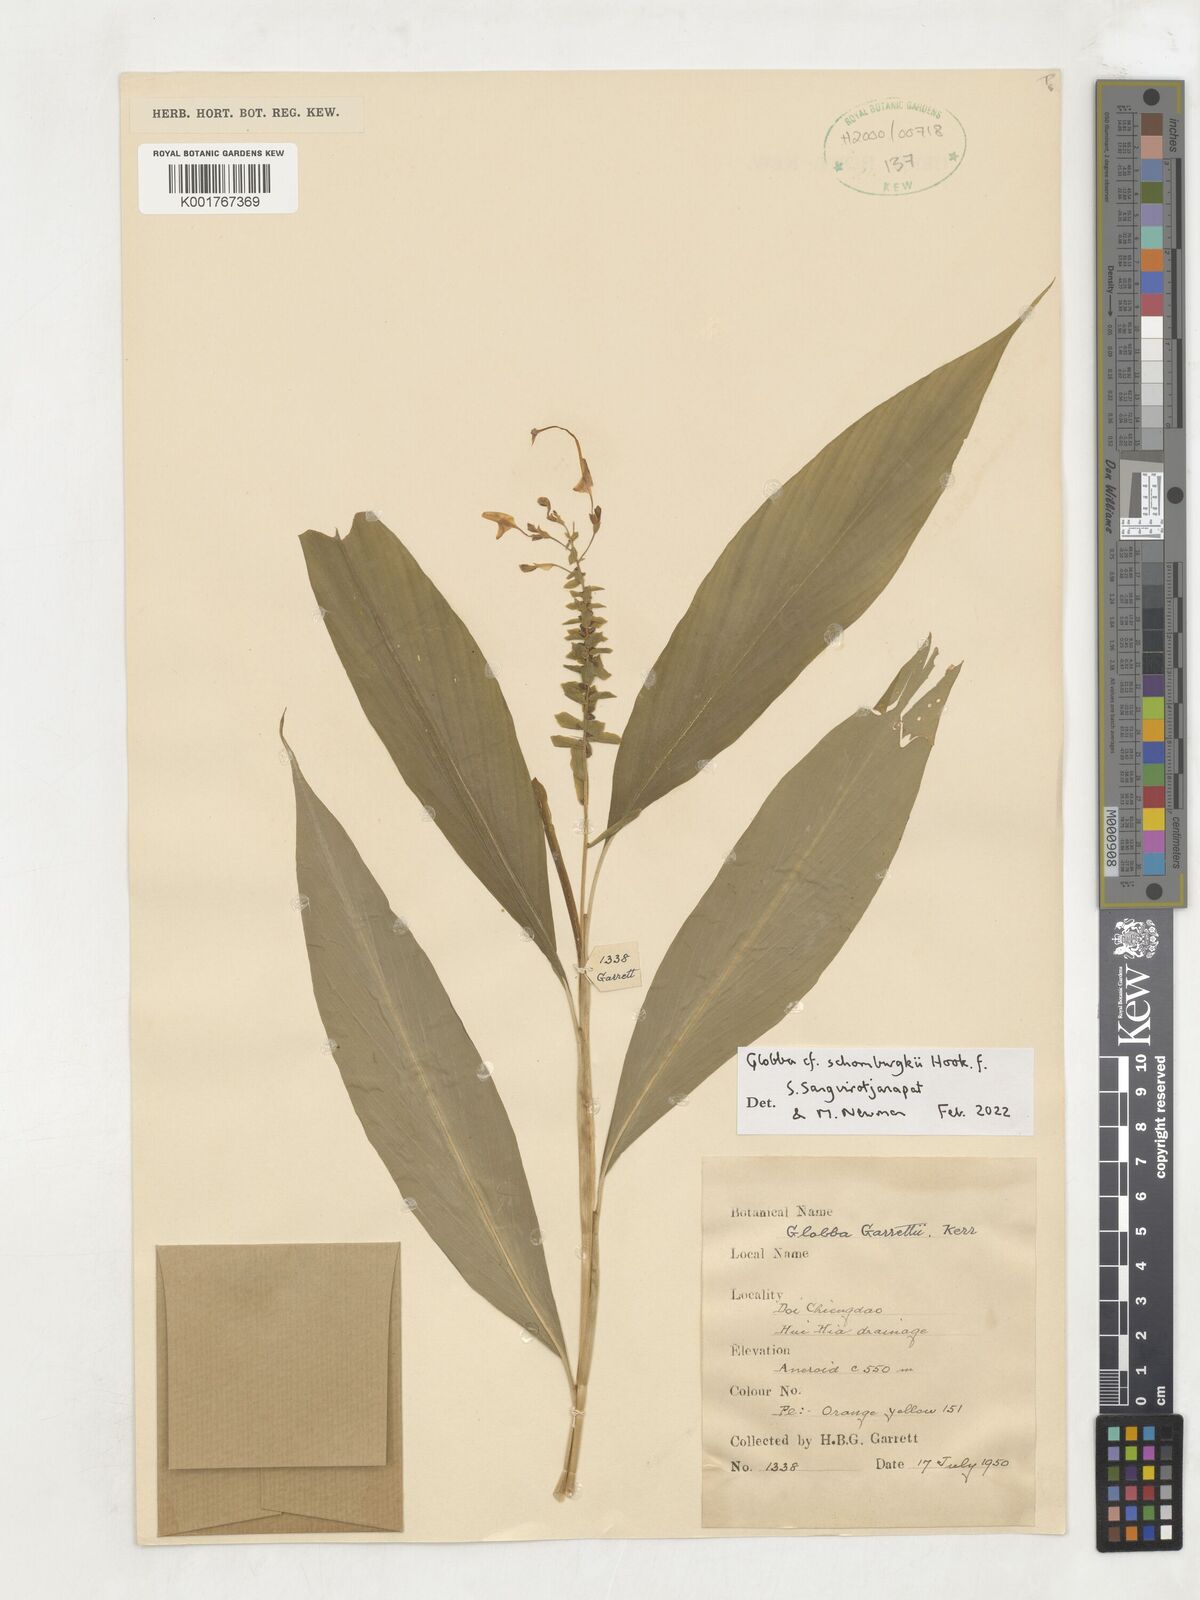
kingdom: Plantae
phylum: Tracheophyta
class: Liliopsida
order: Zingiberales
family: Zingiberaceae
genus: Globba
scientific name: Globba schomburgkii
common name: Dancing girl ginger
